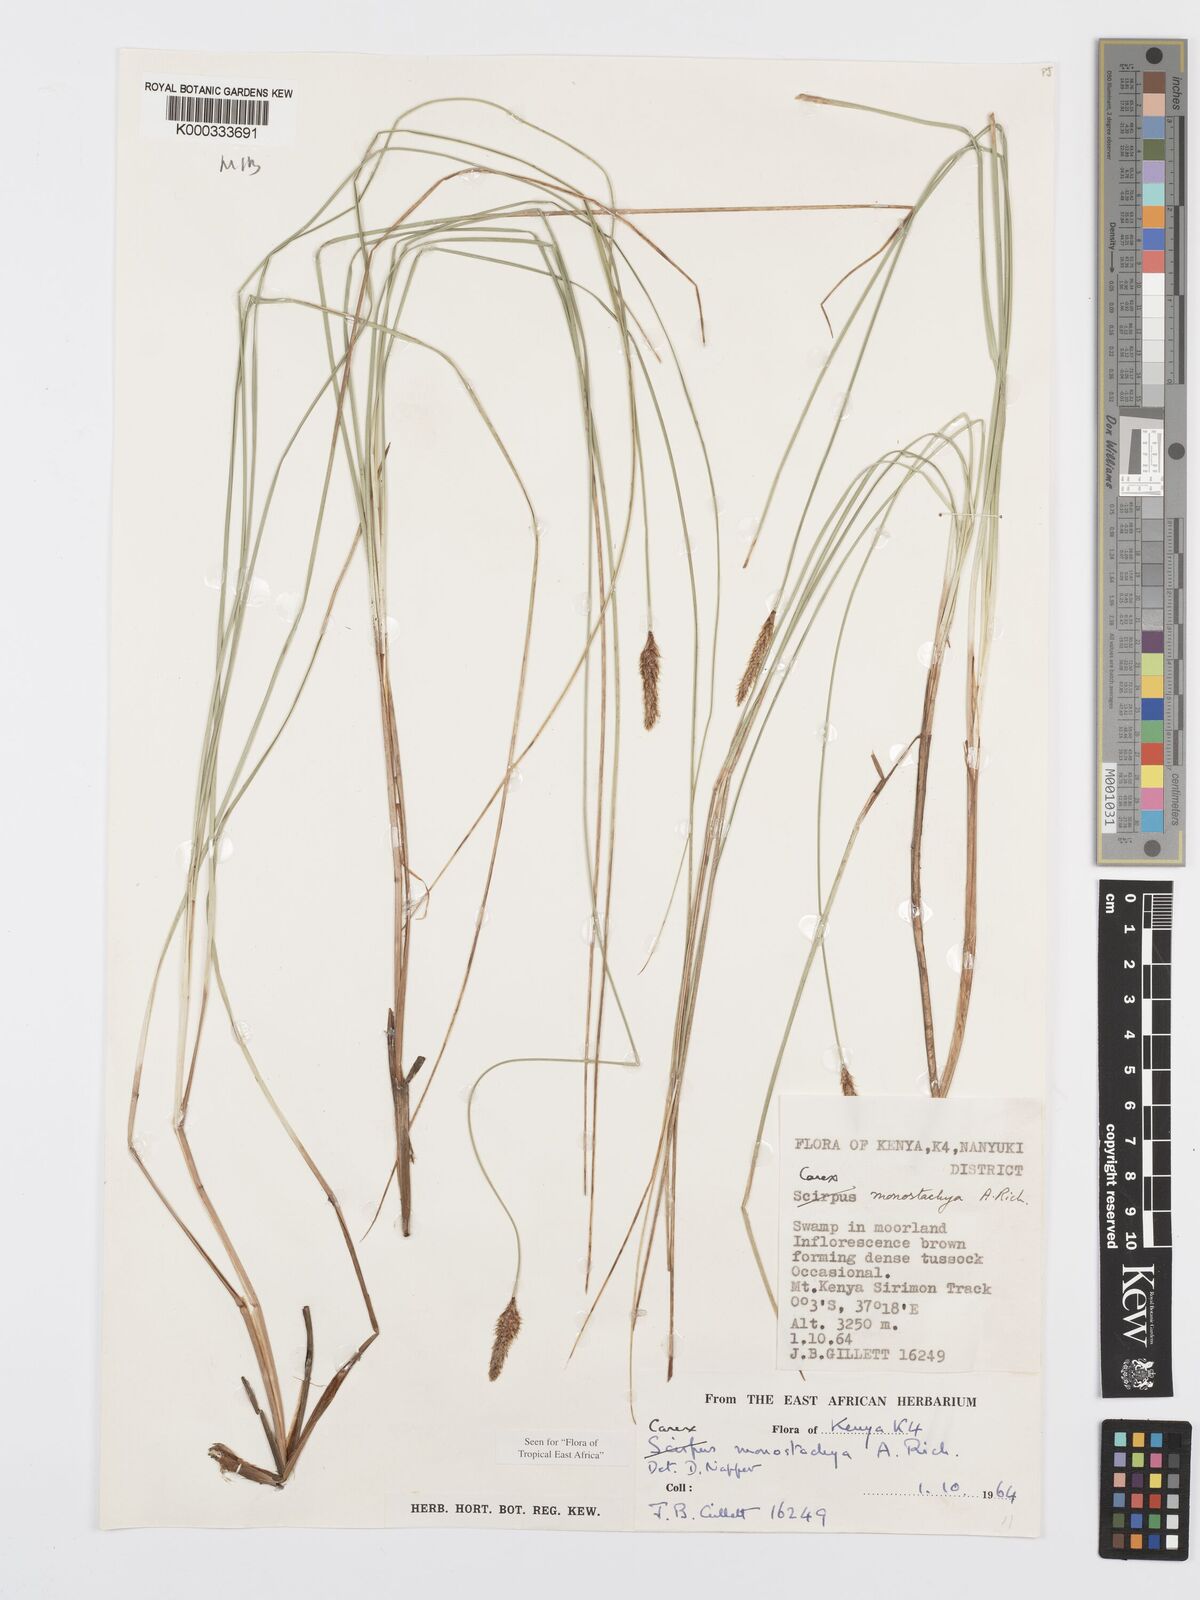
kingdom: Plantae
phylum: Tracheophyta
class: Liliopsida
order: Poales
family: Cyperaceae
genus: Carex
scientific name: Carex monostachya
